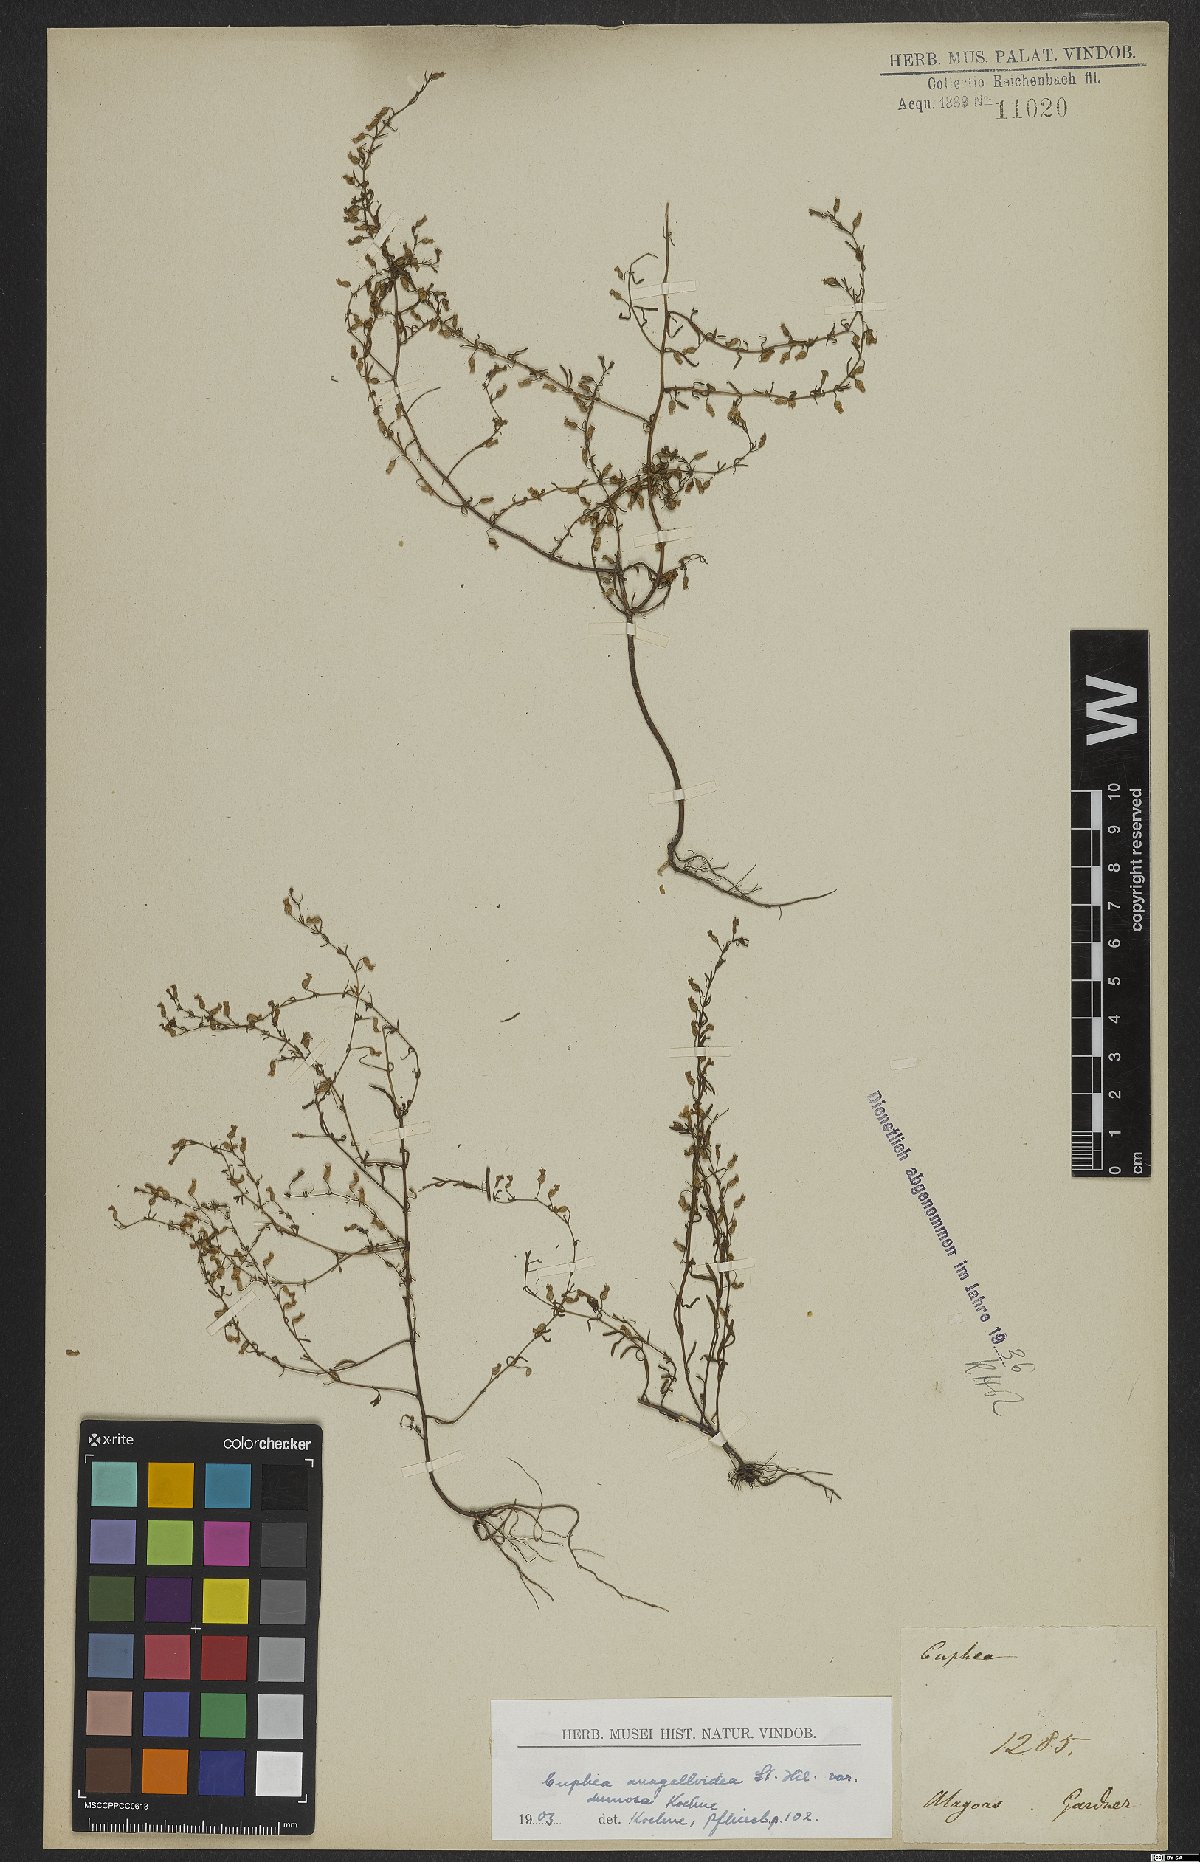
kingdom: Plantae
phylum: Tracheophyta
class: Magnoliopsida
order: Myrtales
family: Lythraceae
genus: Cuphea
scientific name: Cuphea anagalloidea
